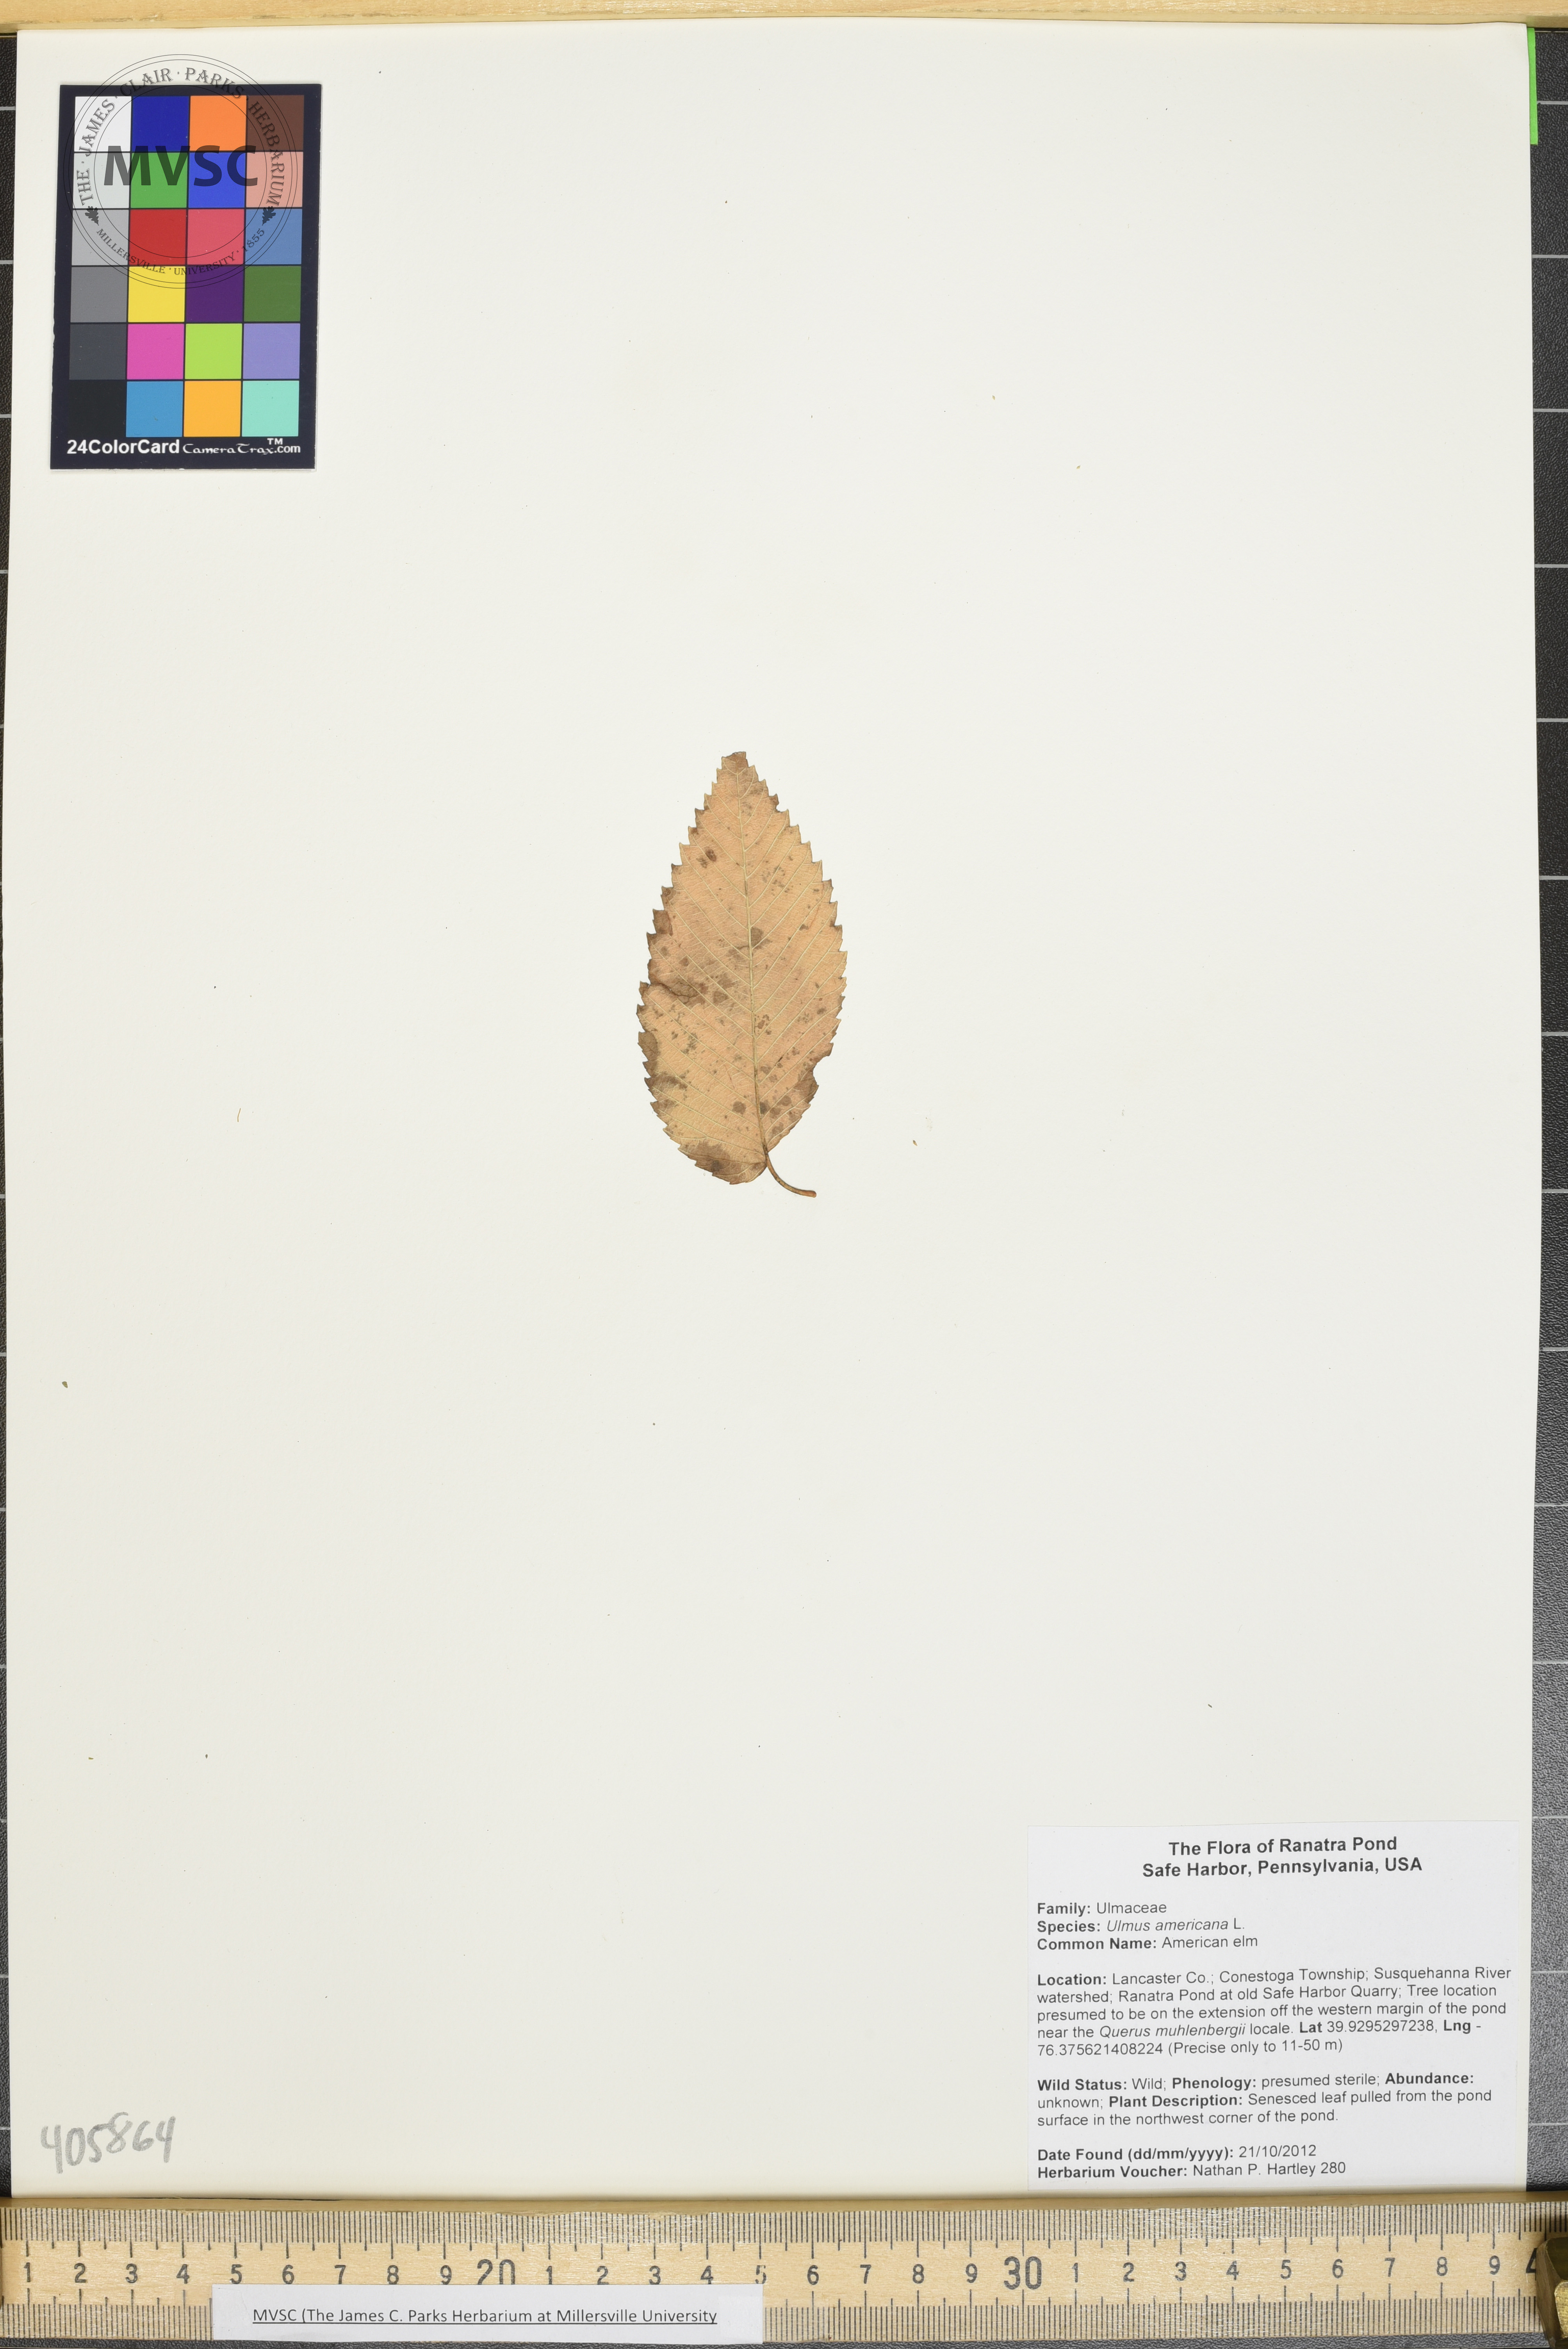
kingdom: Plantae
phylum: Tracheophyta
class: Magnoliopsida
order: Rosales
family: Ulmaceae
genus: Ulmus
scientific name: Ulmus americana
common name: American elm
